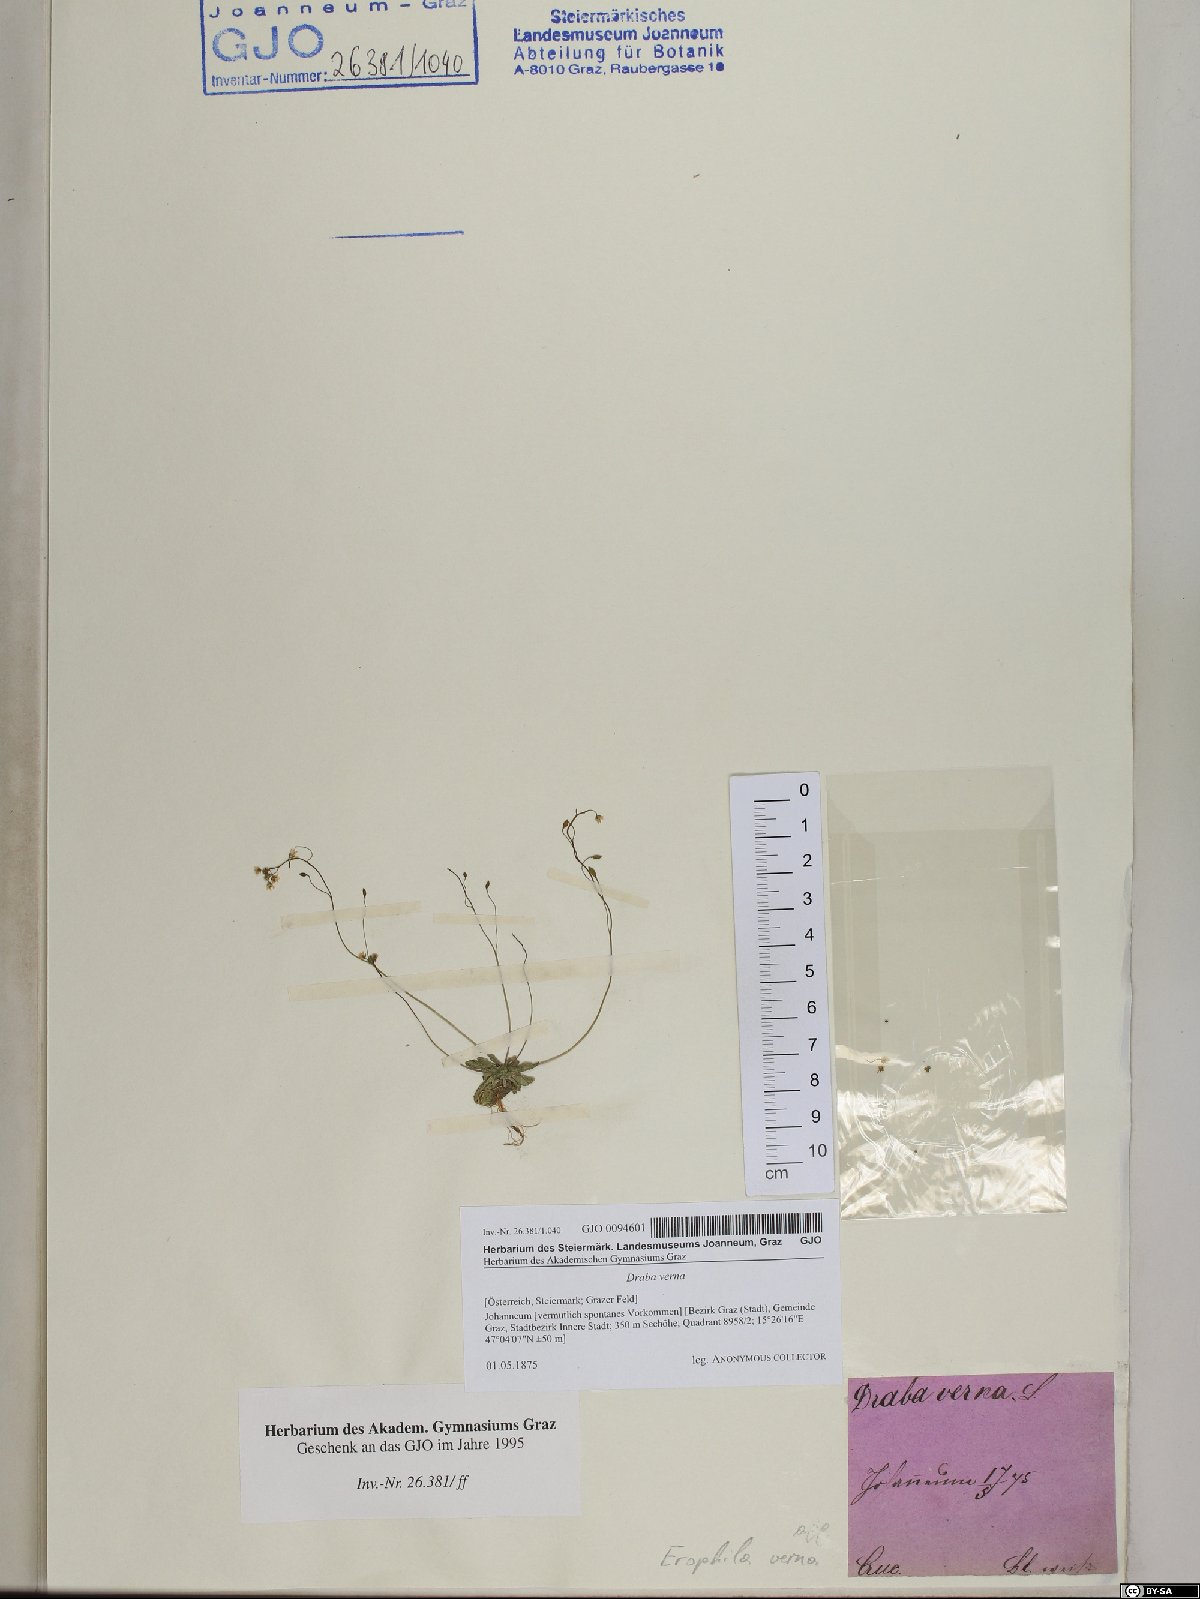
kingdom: Plantae
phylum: Tracheophyta
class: Magnoliopsida
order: Brassicales
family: Brassicaceae
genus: Draba
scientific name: Draba verna
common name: Spring draba
